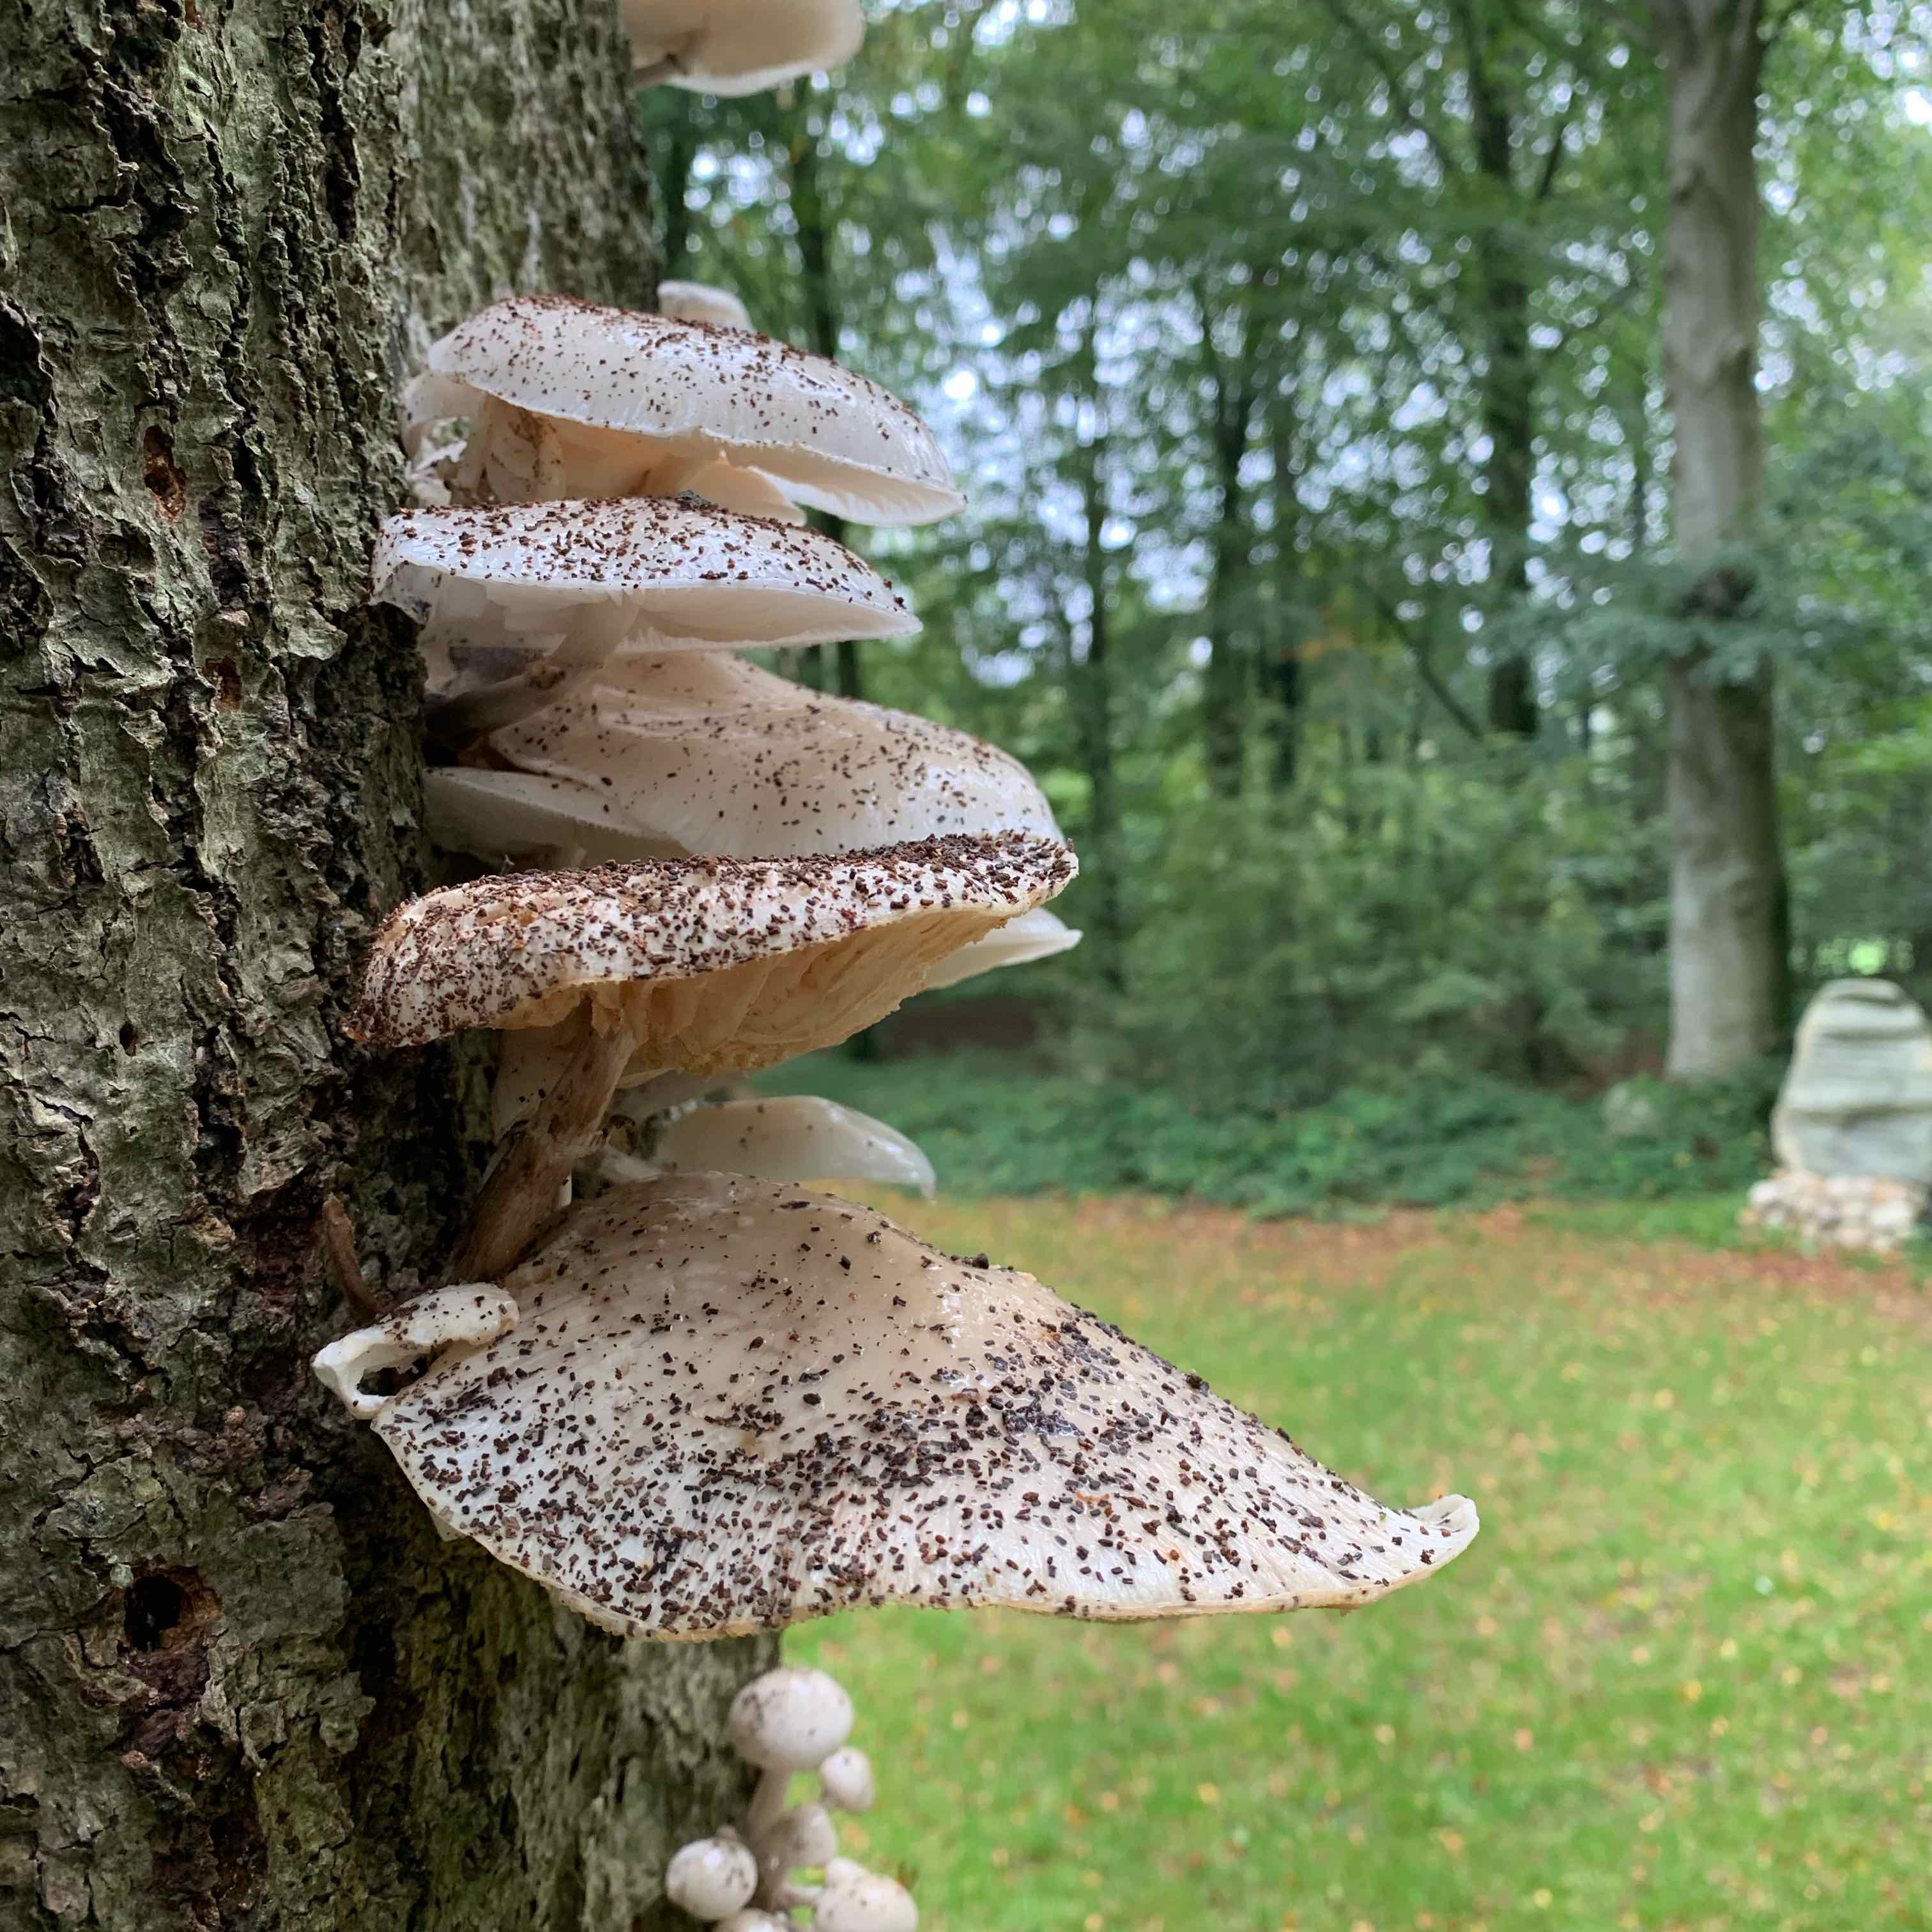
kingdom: Fungi
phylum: Basidiomycota
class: Agaricomycetes
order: Agaricales
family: Physalacriaceae
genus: Mucidula
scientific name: Mucidula mucida
